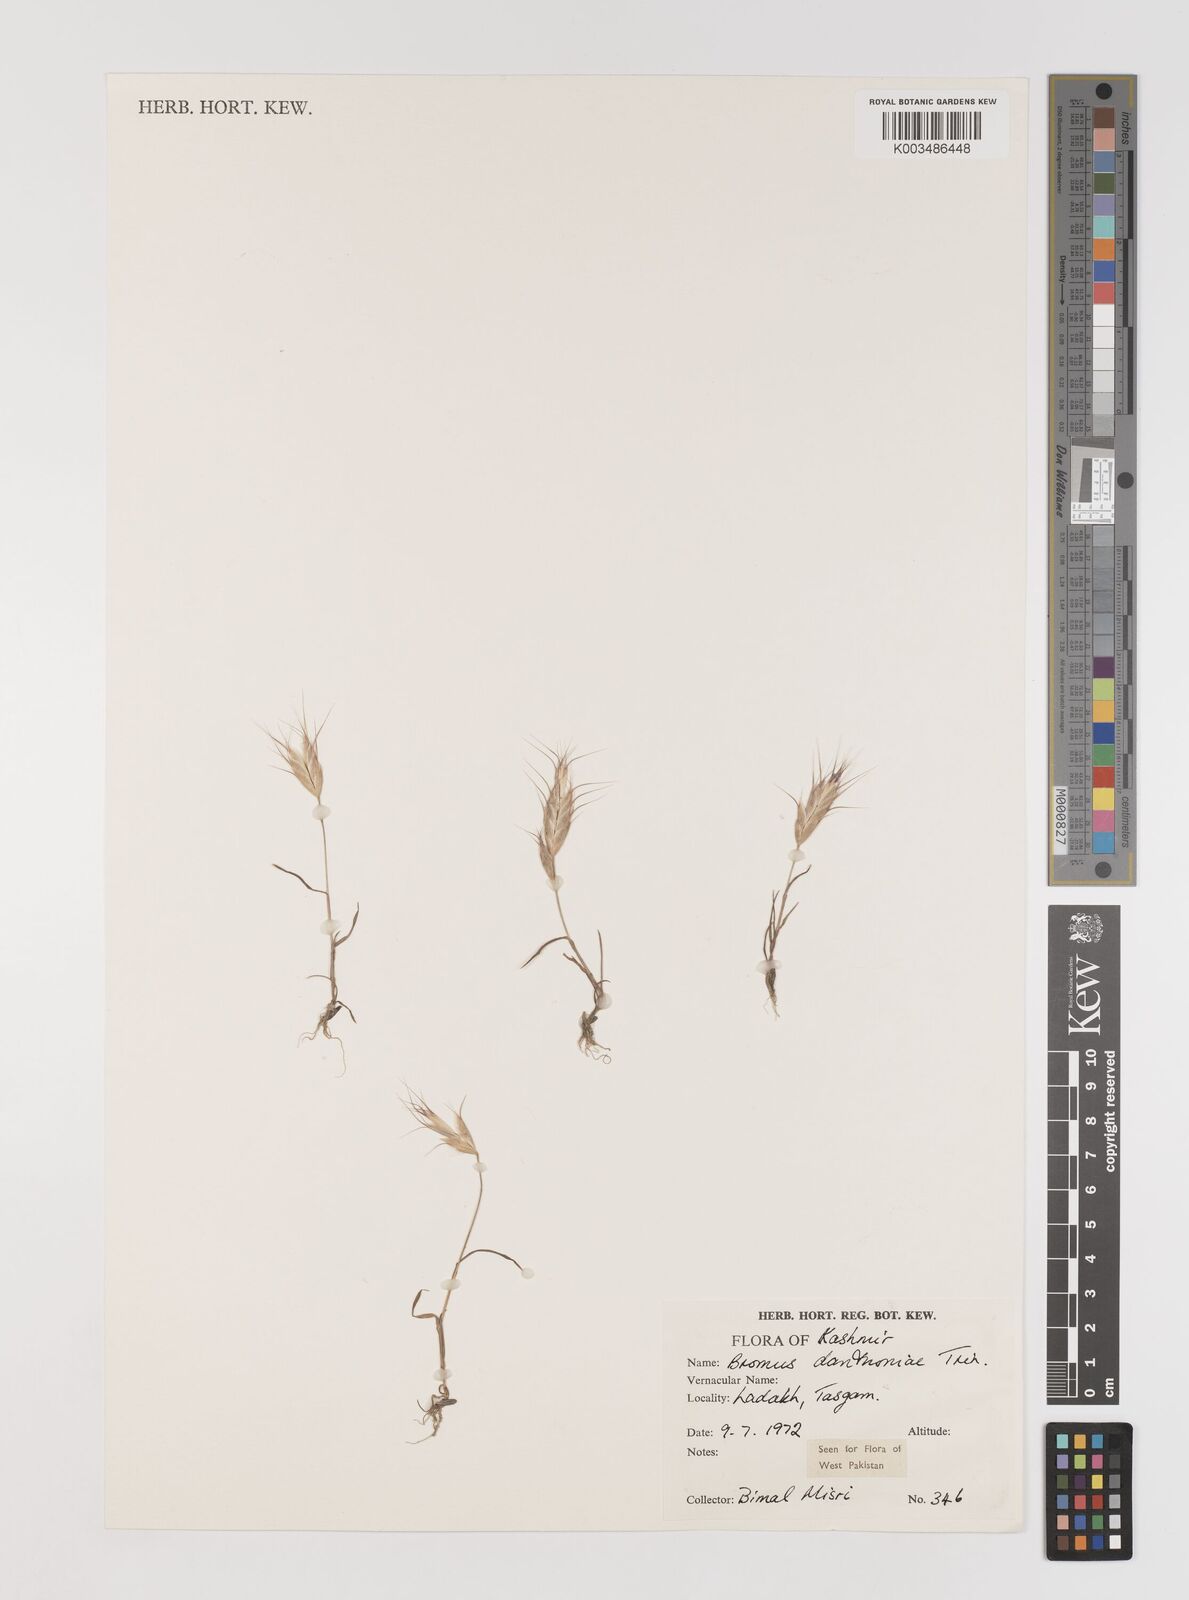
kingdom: Plantae
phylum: Tracheophyta
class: Liliopsida
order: Poales
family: Poaceae
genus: Bromus
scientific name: Bromus danthoniae
